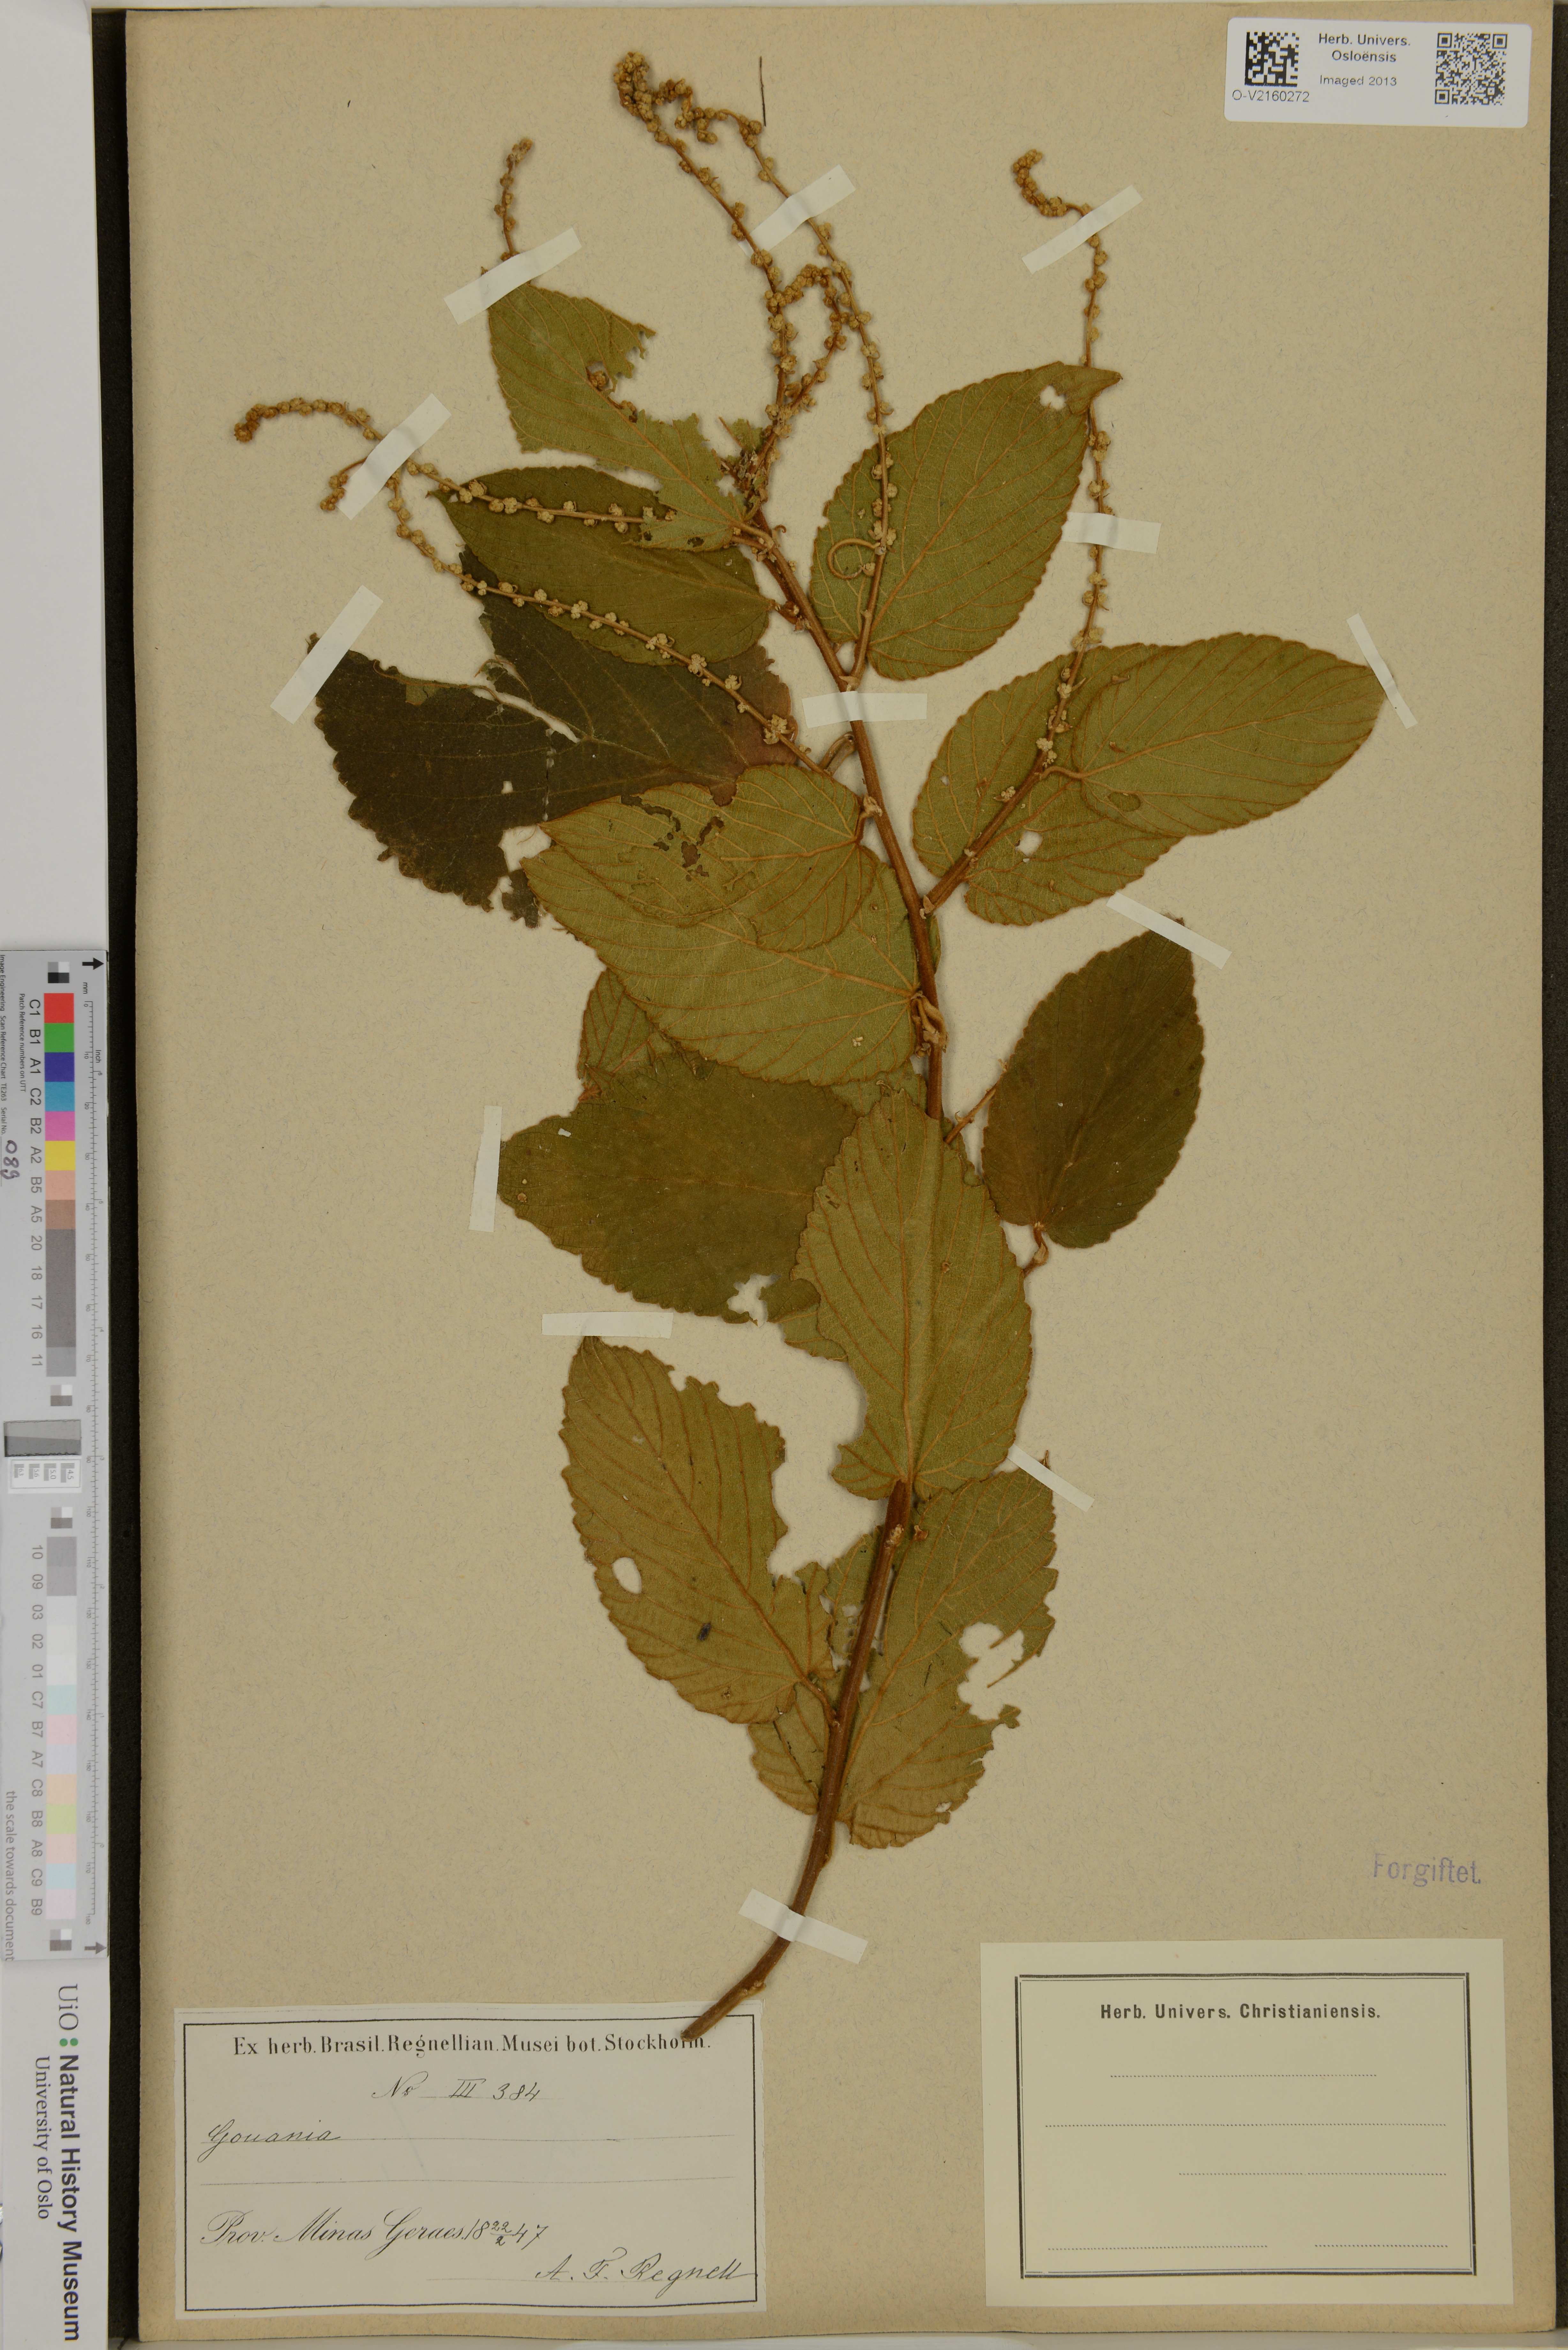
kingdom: Plantae
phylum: Tracheophyta
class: Magnoliopsida
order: Rosales
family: Rhamnaceae
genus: Gouania
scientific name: Gouania
